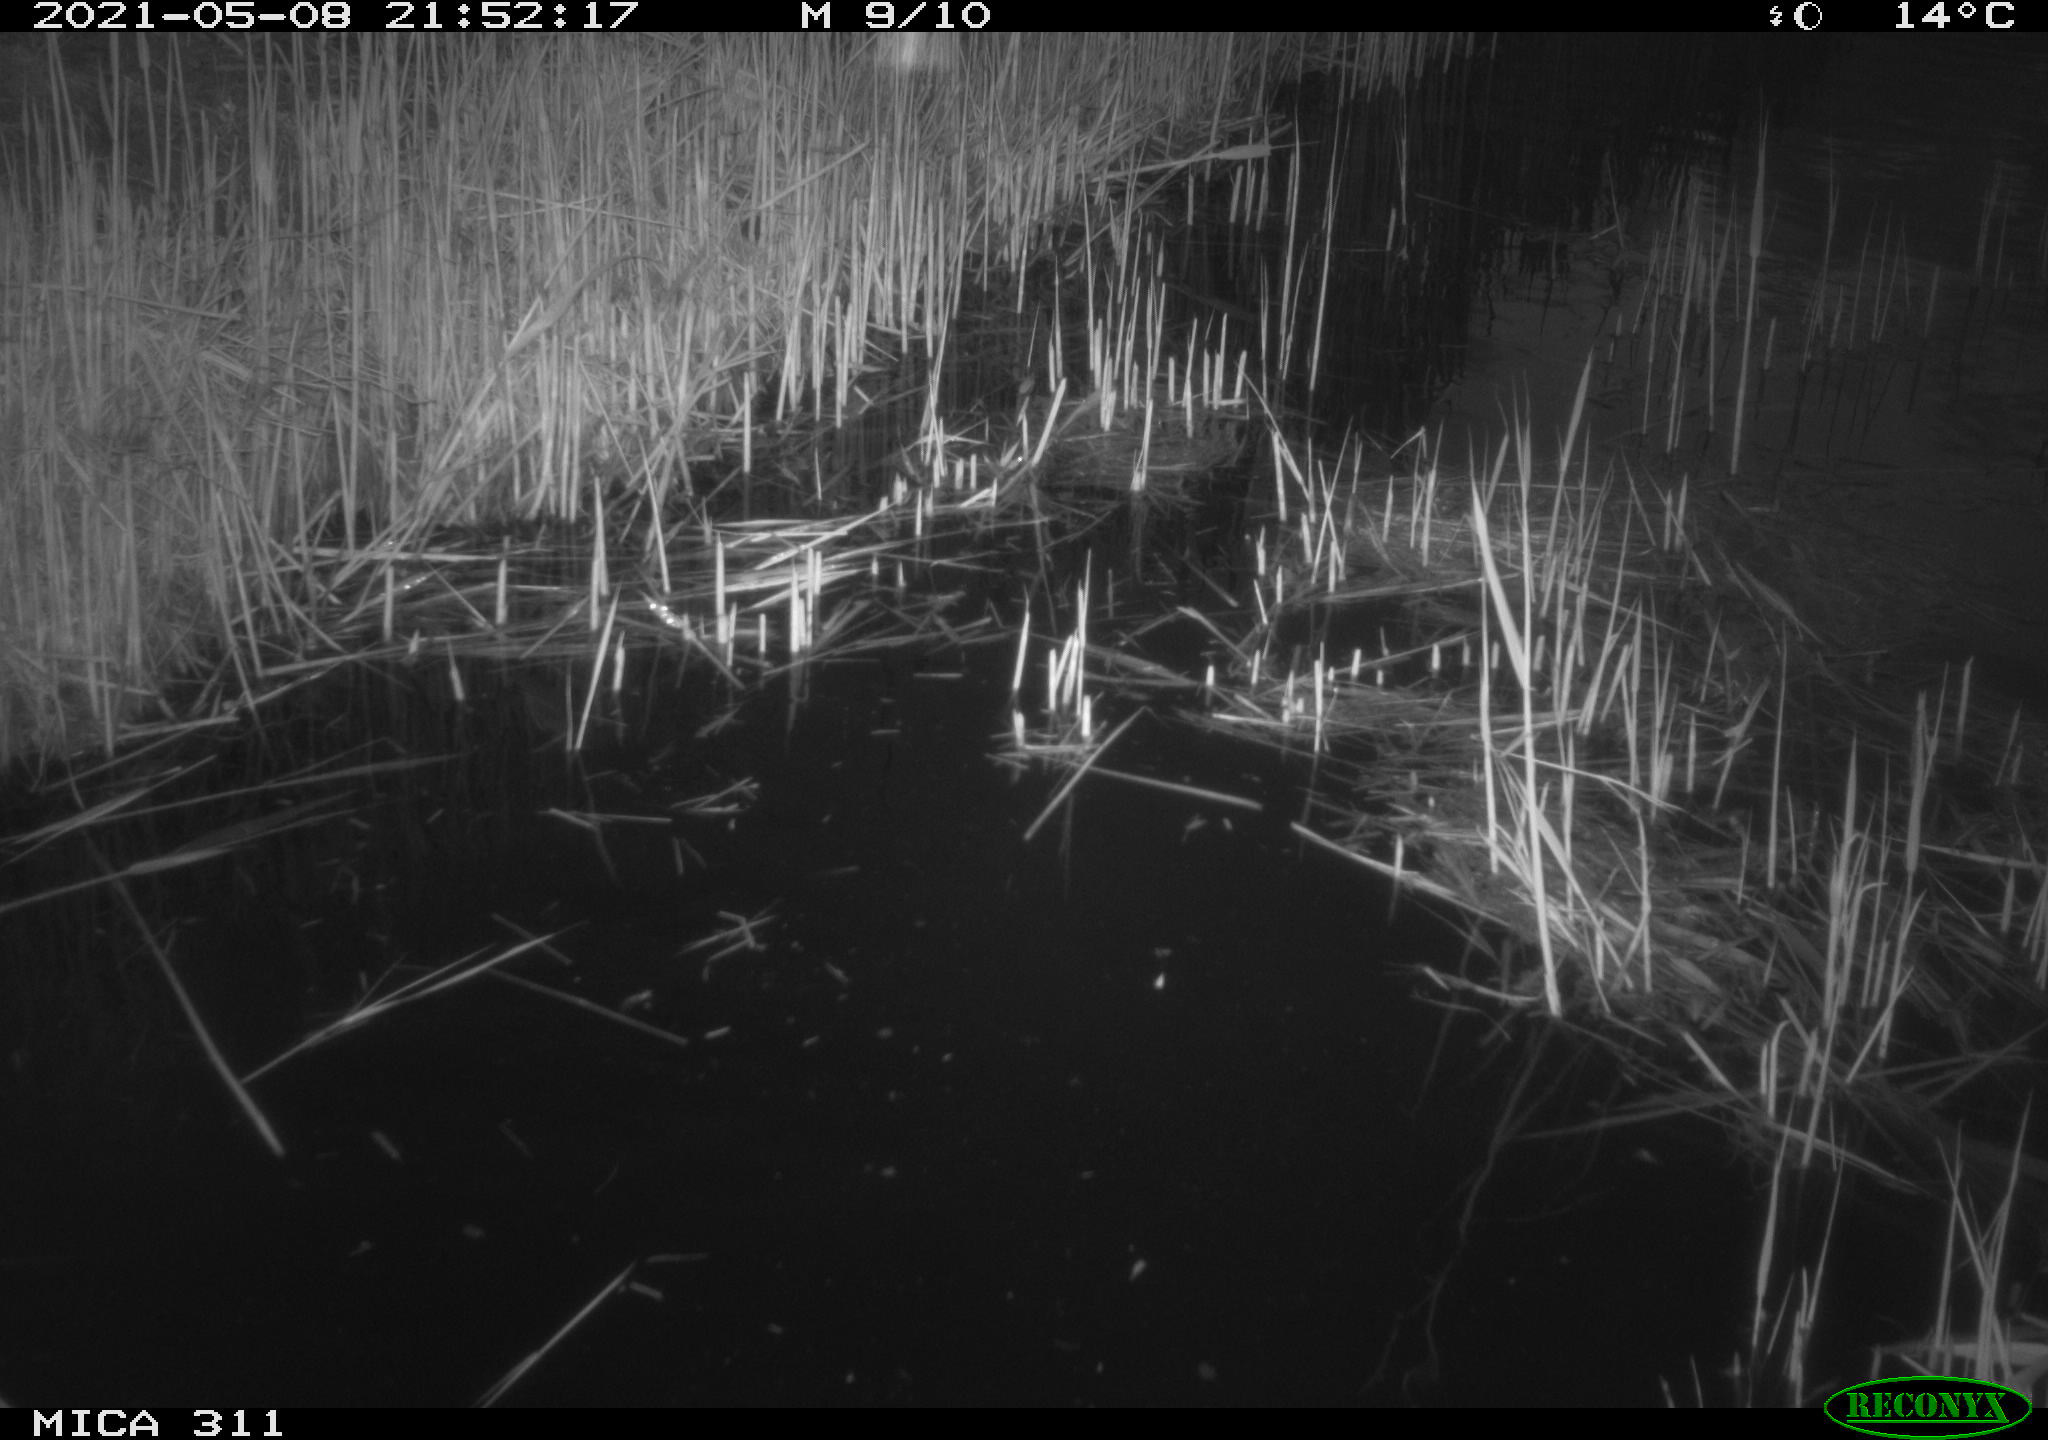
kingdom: Animalia
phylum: Chordata
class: Aves
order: Gruiformes
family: Rallidae
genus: Gallinula
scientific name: Gallinula chloropus
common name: Common moorhen
